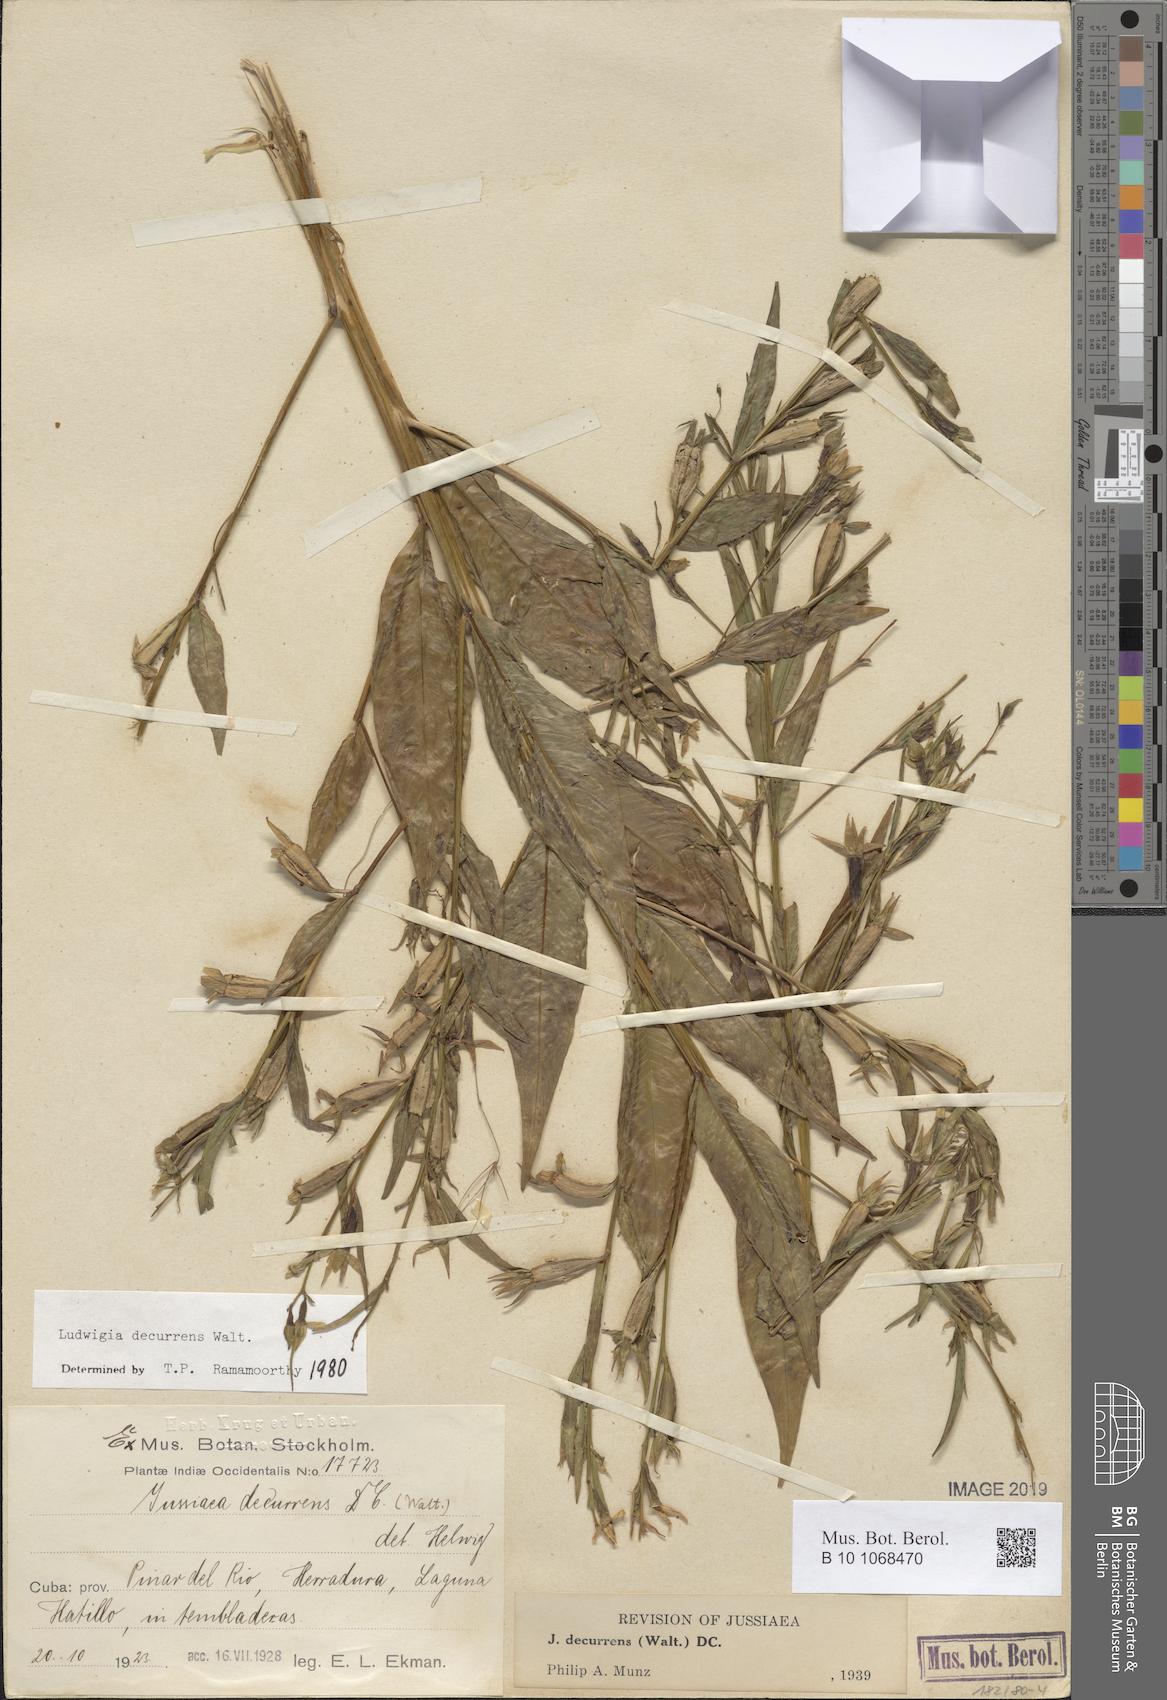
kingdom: Plantae
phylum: Tracheophyta
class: Magnoliopsida
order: Myrtales
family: Onagraceae
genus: Ludwigia
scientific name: Ludwigia decurrens
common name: Winged water-primrose
